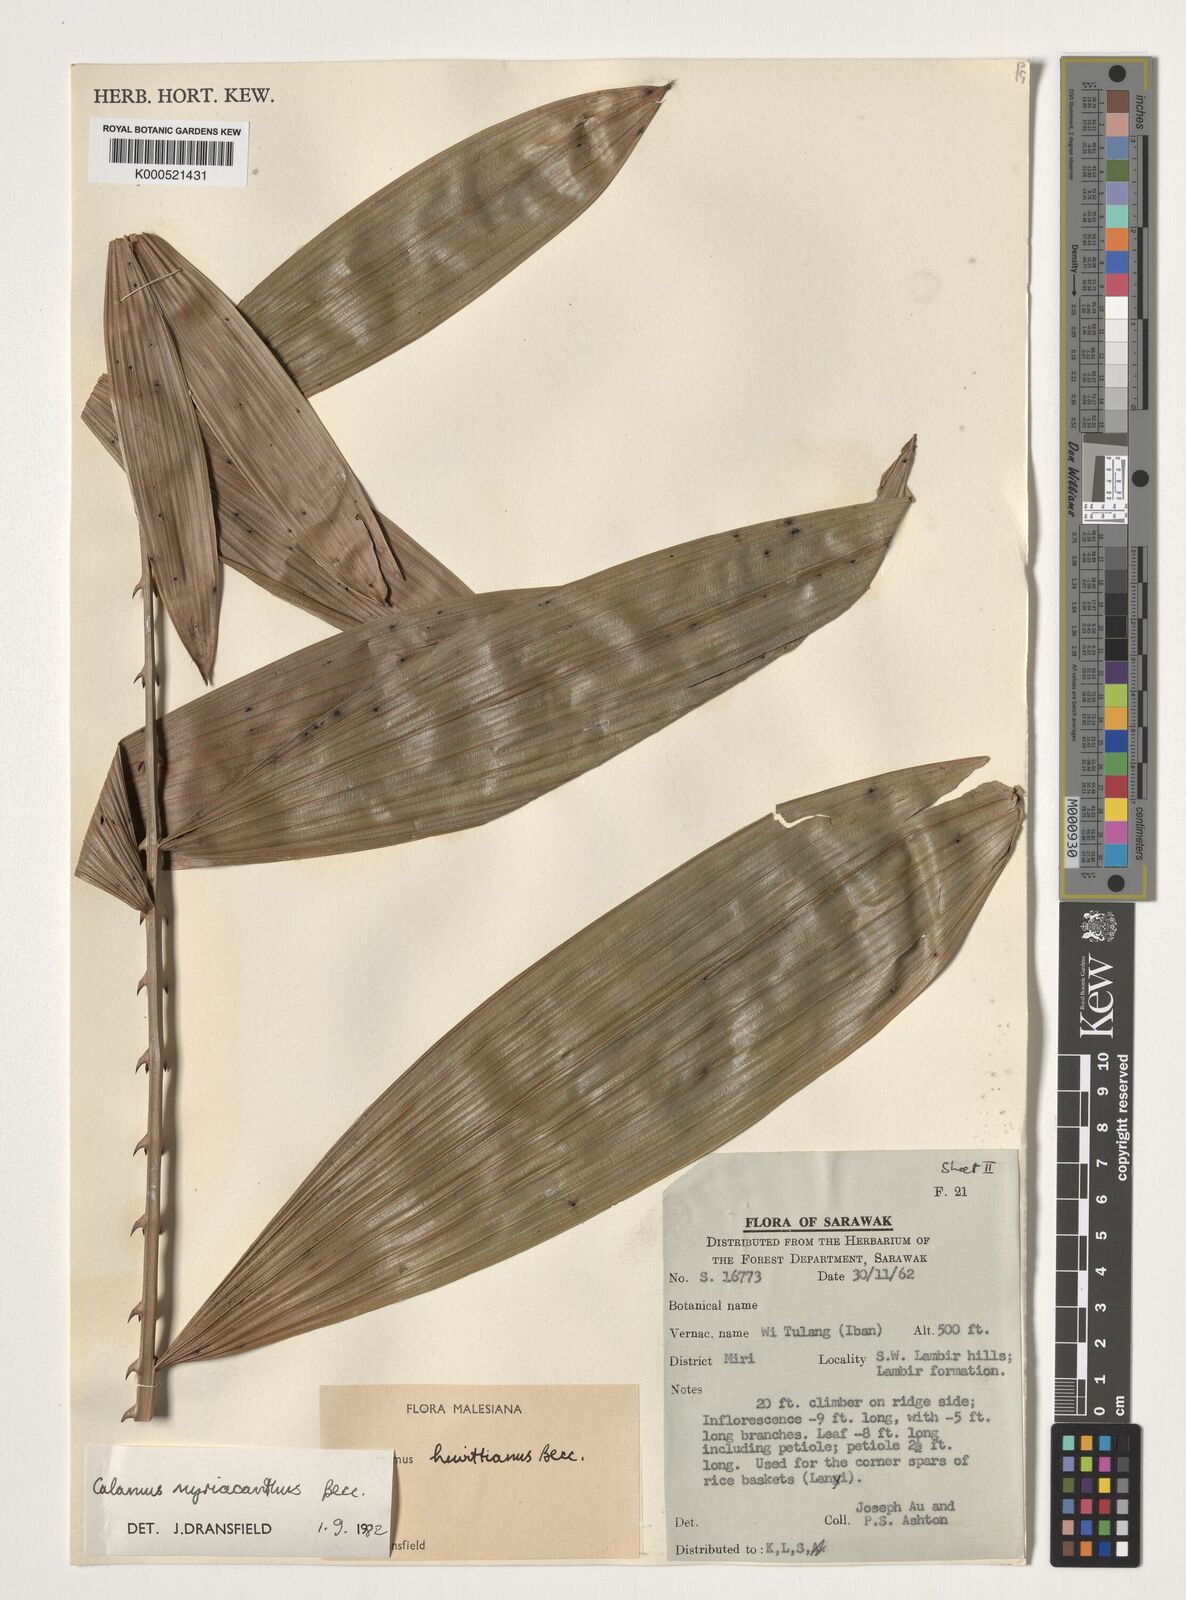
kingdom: Plantae
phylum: Tracheophyta
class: Liliopsida
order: Arecales
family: Arecaceae
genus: Calamus
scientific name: Calamus myriacanthus
